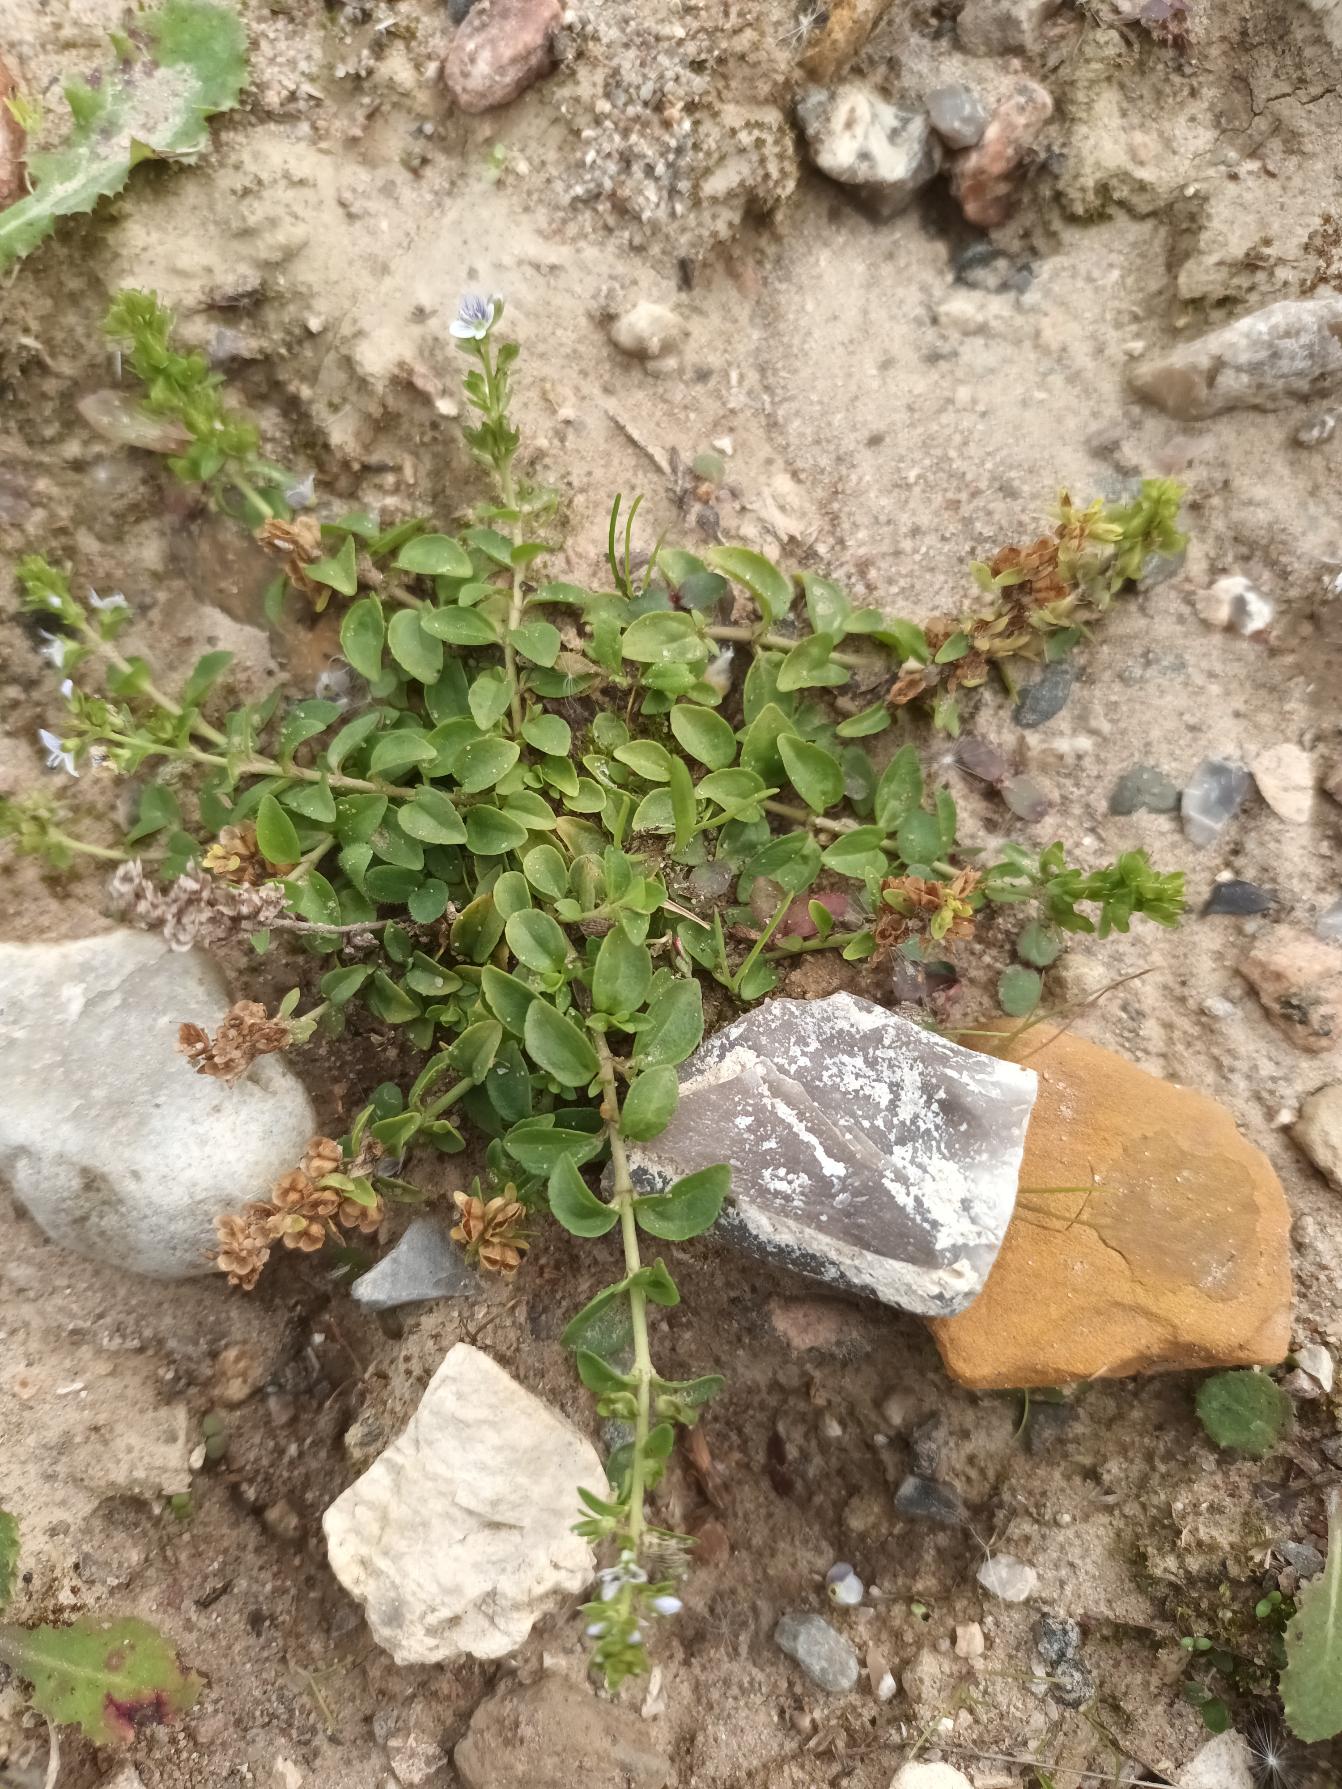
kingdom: Plantae
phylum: Tracheophyta
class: Magnoliopsida
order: Lamiales
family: Plantaginaceae
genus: Veronica
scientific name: Veronica serpyllifolia
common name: Glat ærenpris
